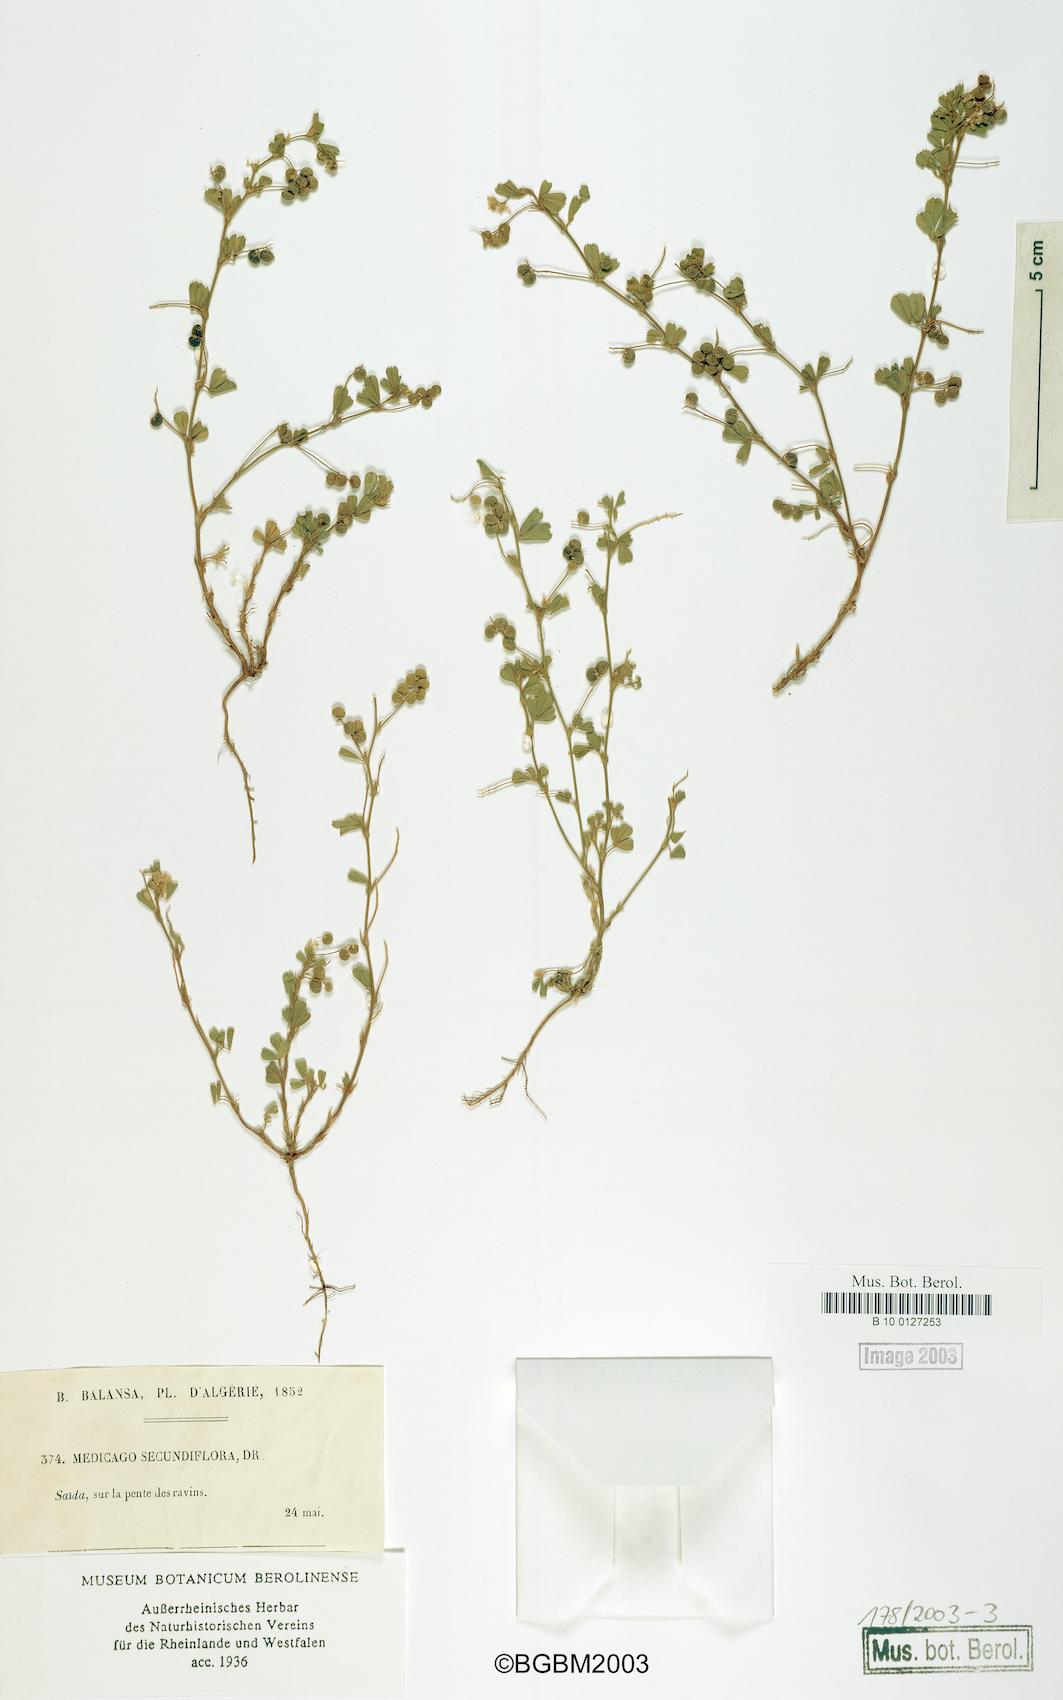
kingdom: Plantae
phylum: Tracheophyta
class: Magnoliopsida
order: Fabales
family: Fabaceae
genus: Medicago
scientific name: Medicago secundiflora
